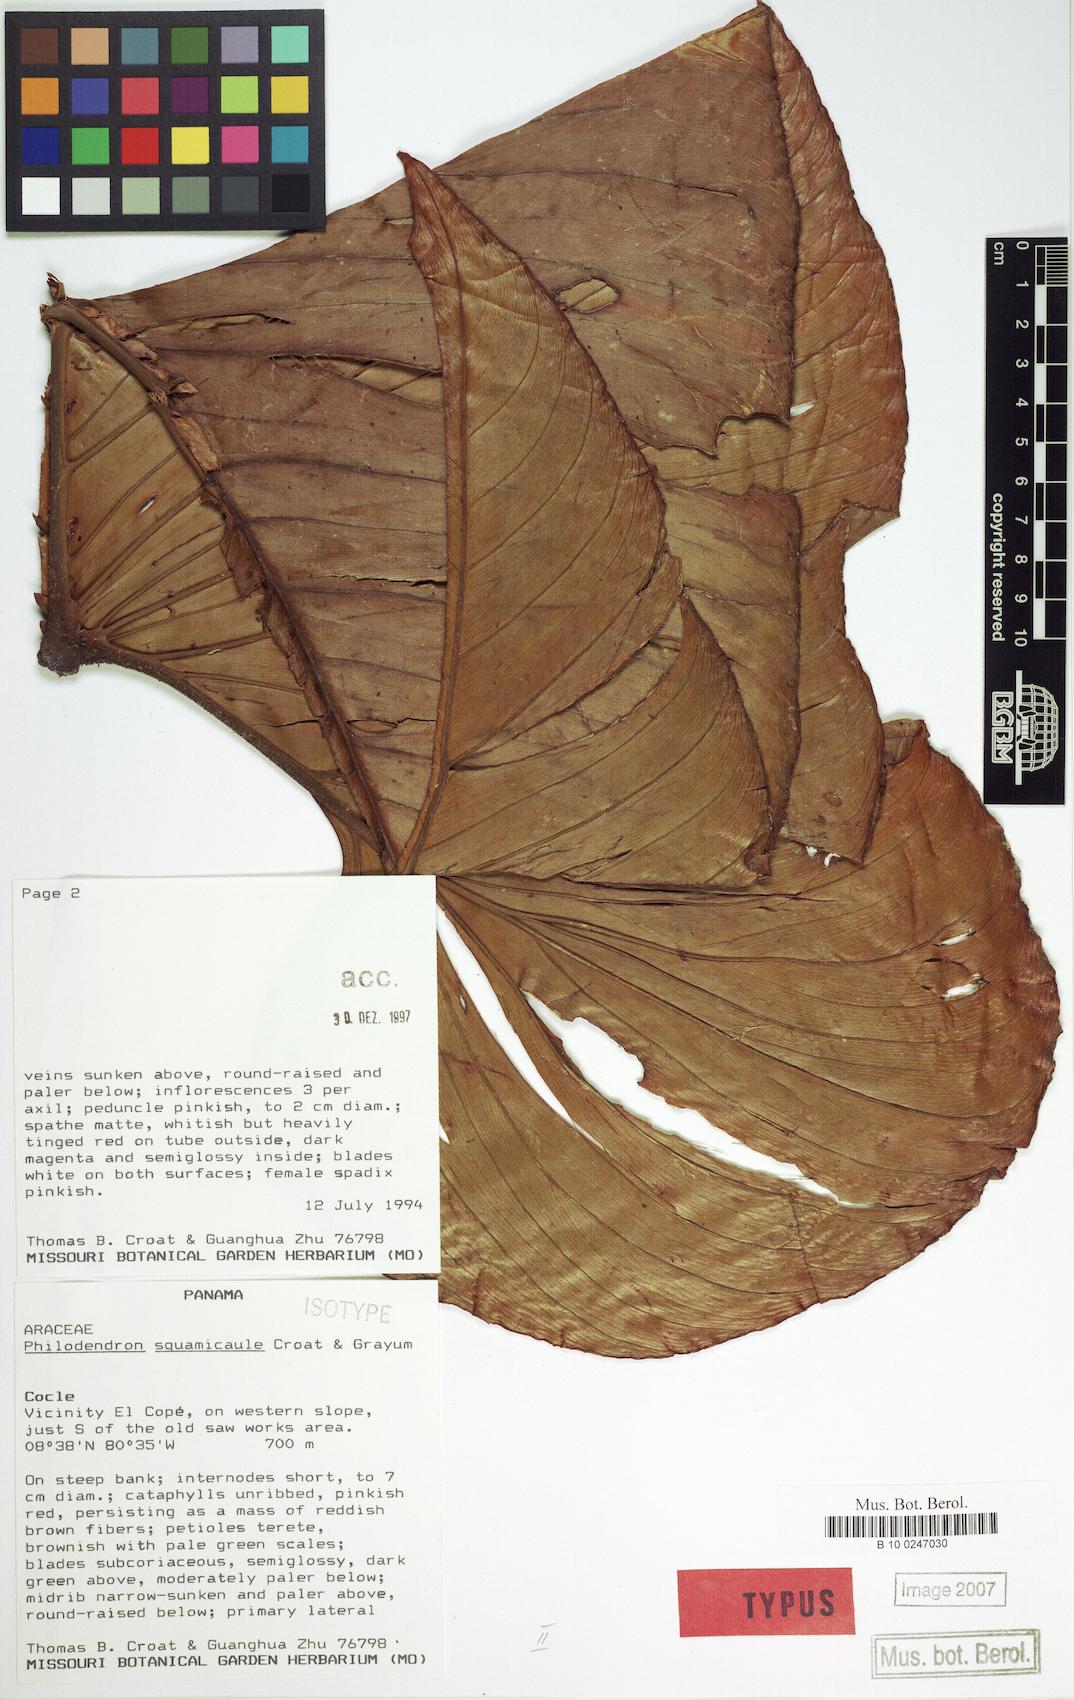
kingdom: Plantae
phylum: Tracheophyta
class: Liliopsida
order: Alismatales
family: Araceae
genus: Philodendron
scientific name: Philodendron squamicaule
